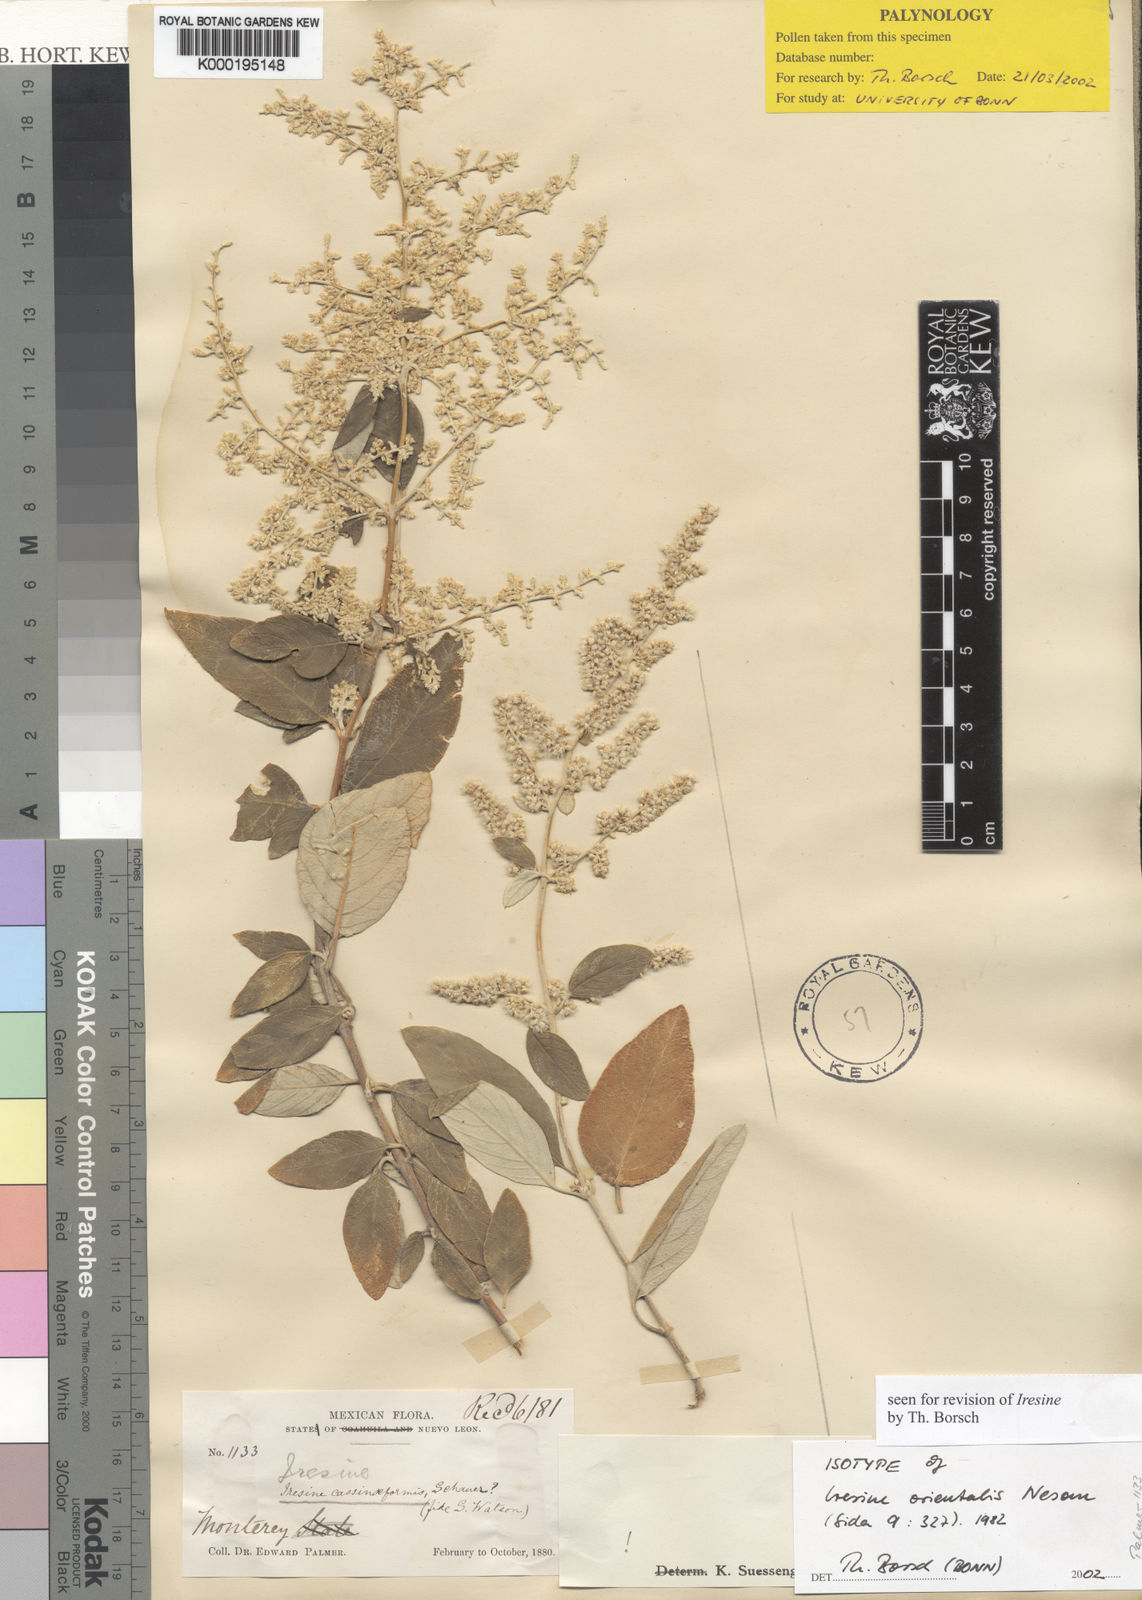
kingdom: Plantae
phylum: Tracheophyta
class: Magnoliopsida
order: Caryophyllales
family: Amaranthaceae
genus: Iresine
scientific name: Iresine orientalis
